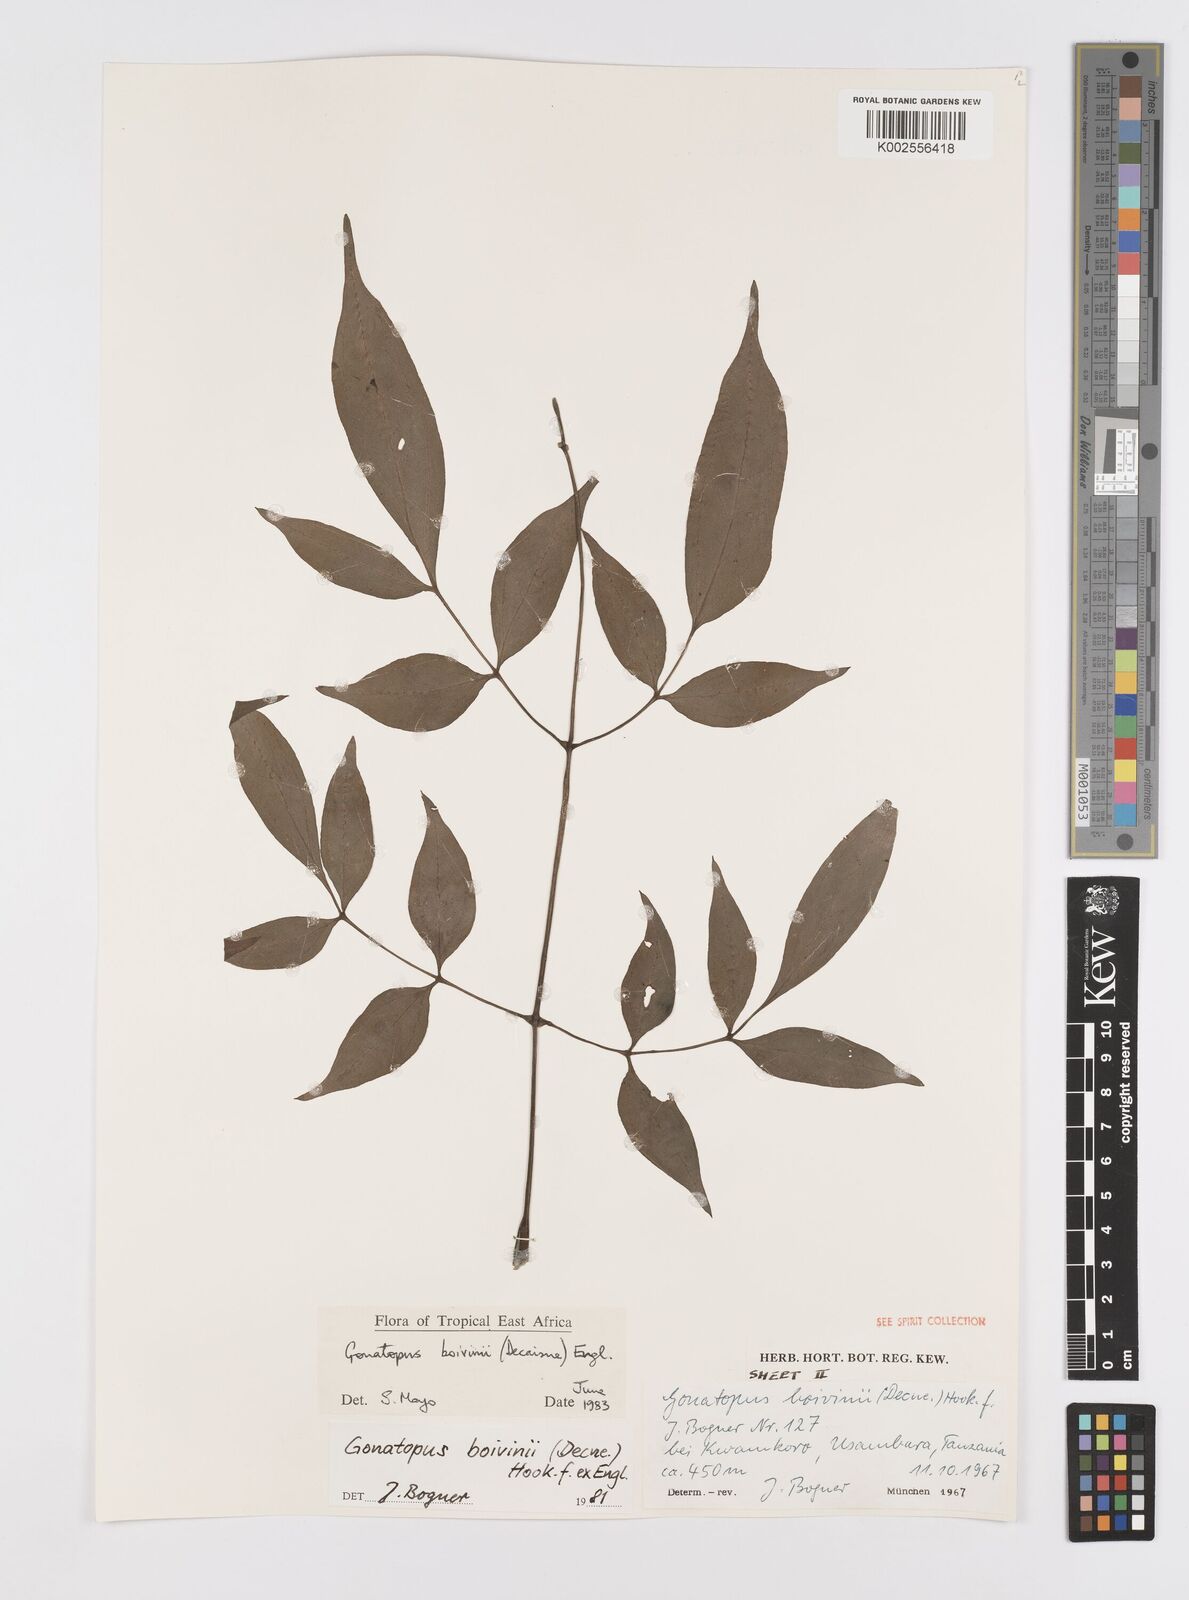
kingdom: Plantae
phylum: Tracheophyta
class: Liliopsida
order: Alismatales
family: Araceae
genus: Gonatopus
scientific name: Gonatopus boivinii
